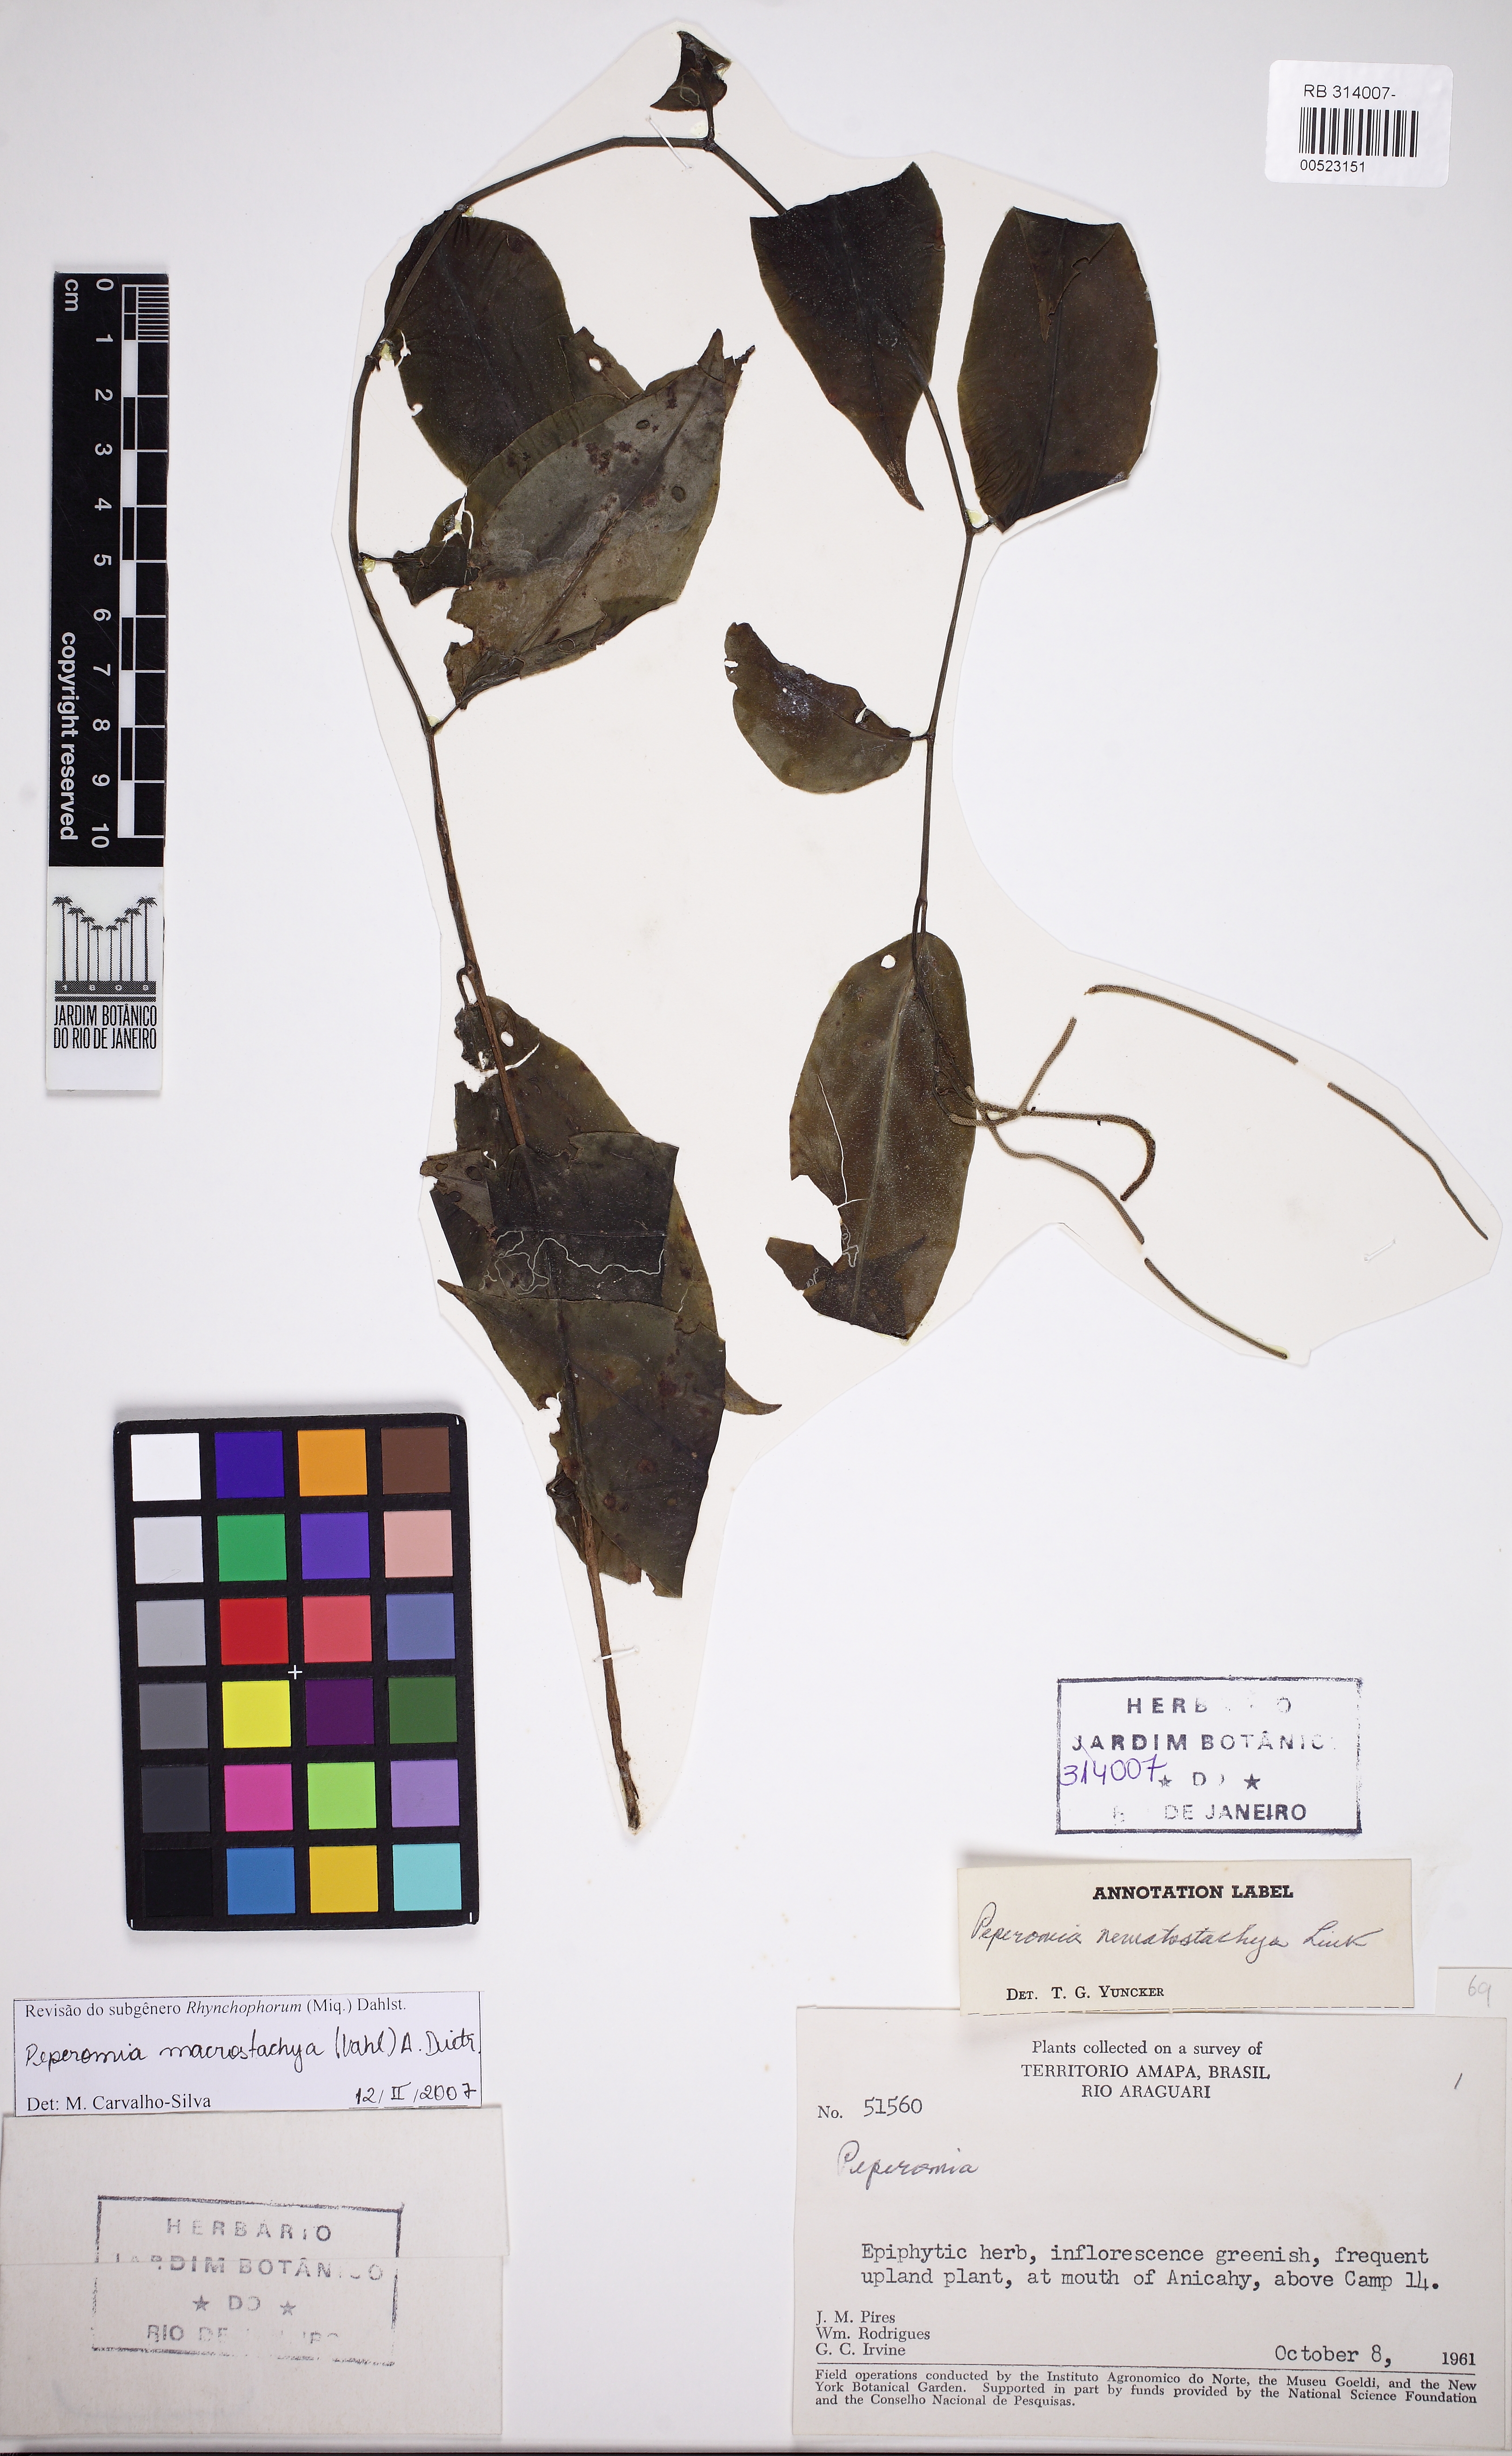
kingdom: Plantae
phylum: Tracheophyta
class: Magnoliopsida
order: Piperales
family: Piperaceae
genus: Peperomia
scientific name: Peperomia macrostachyos
